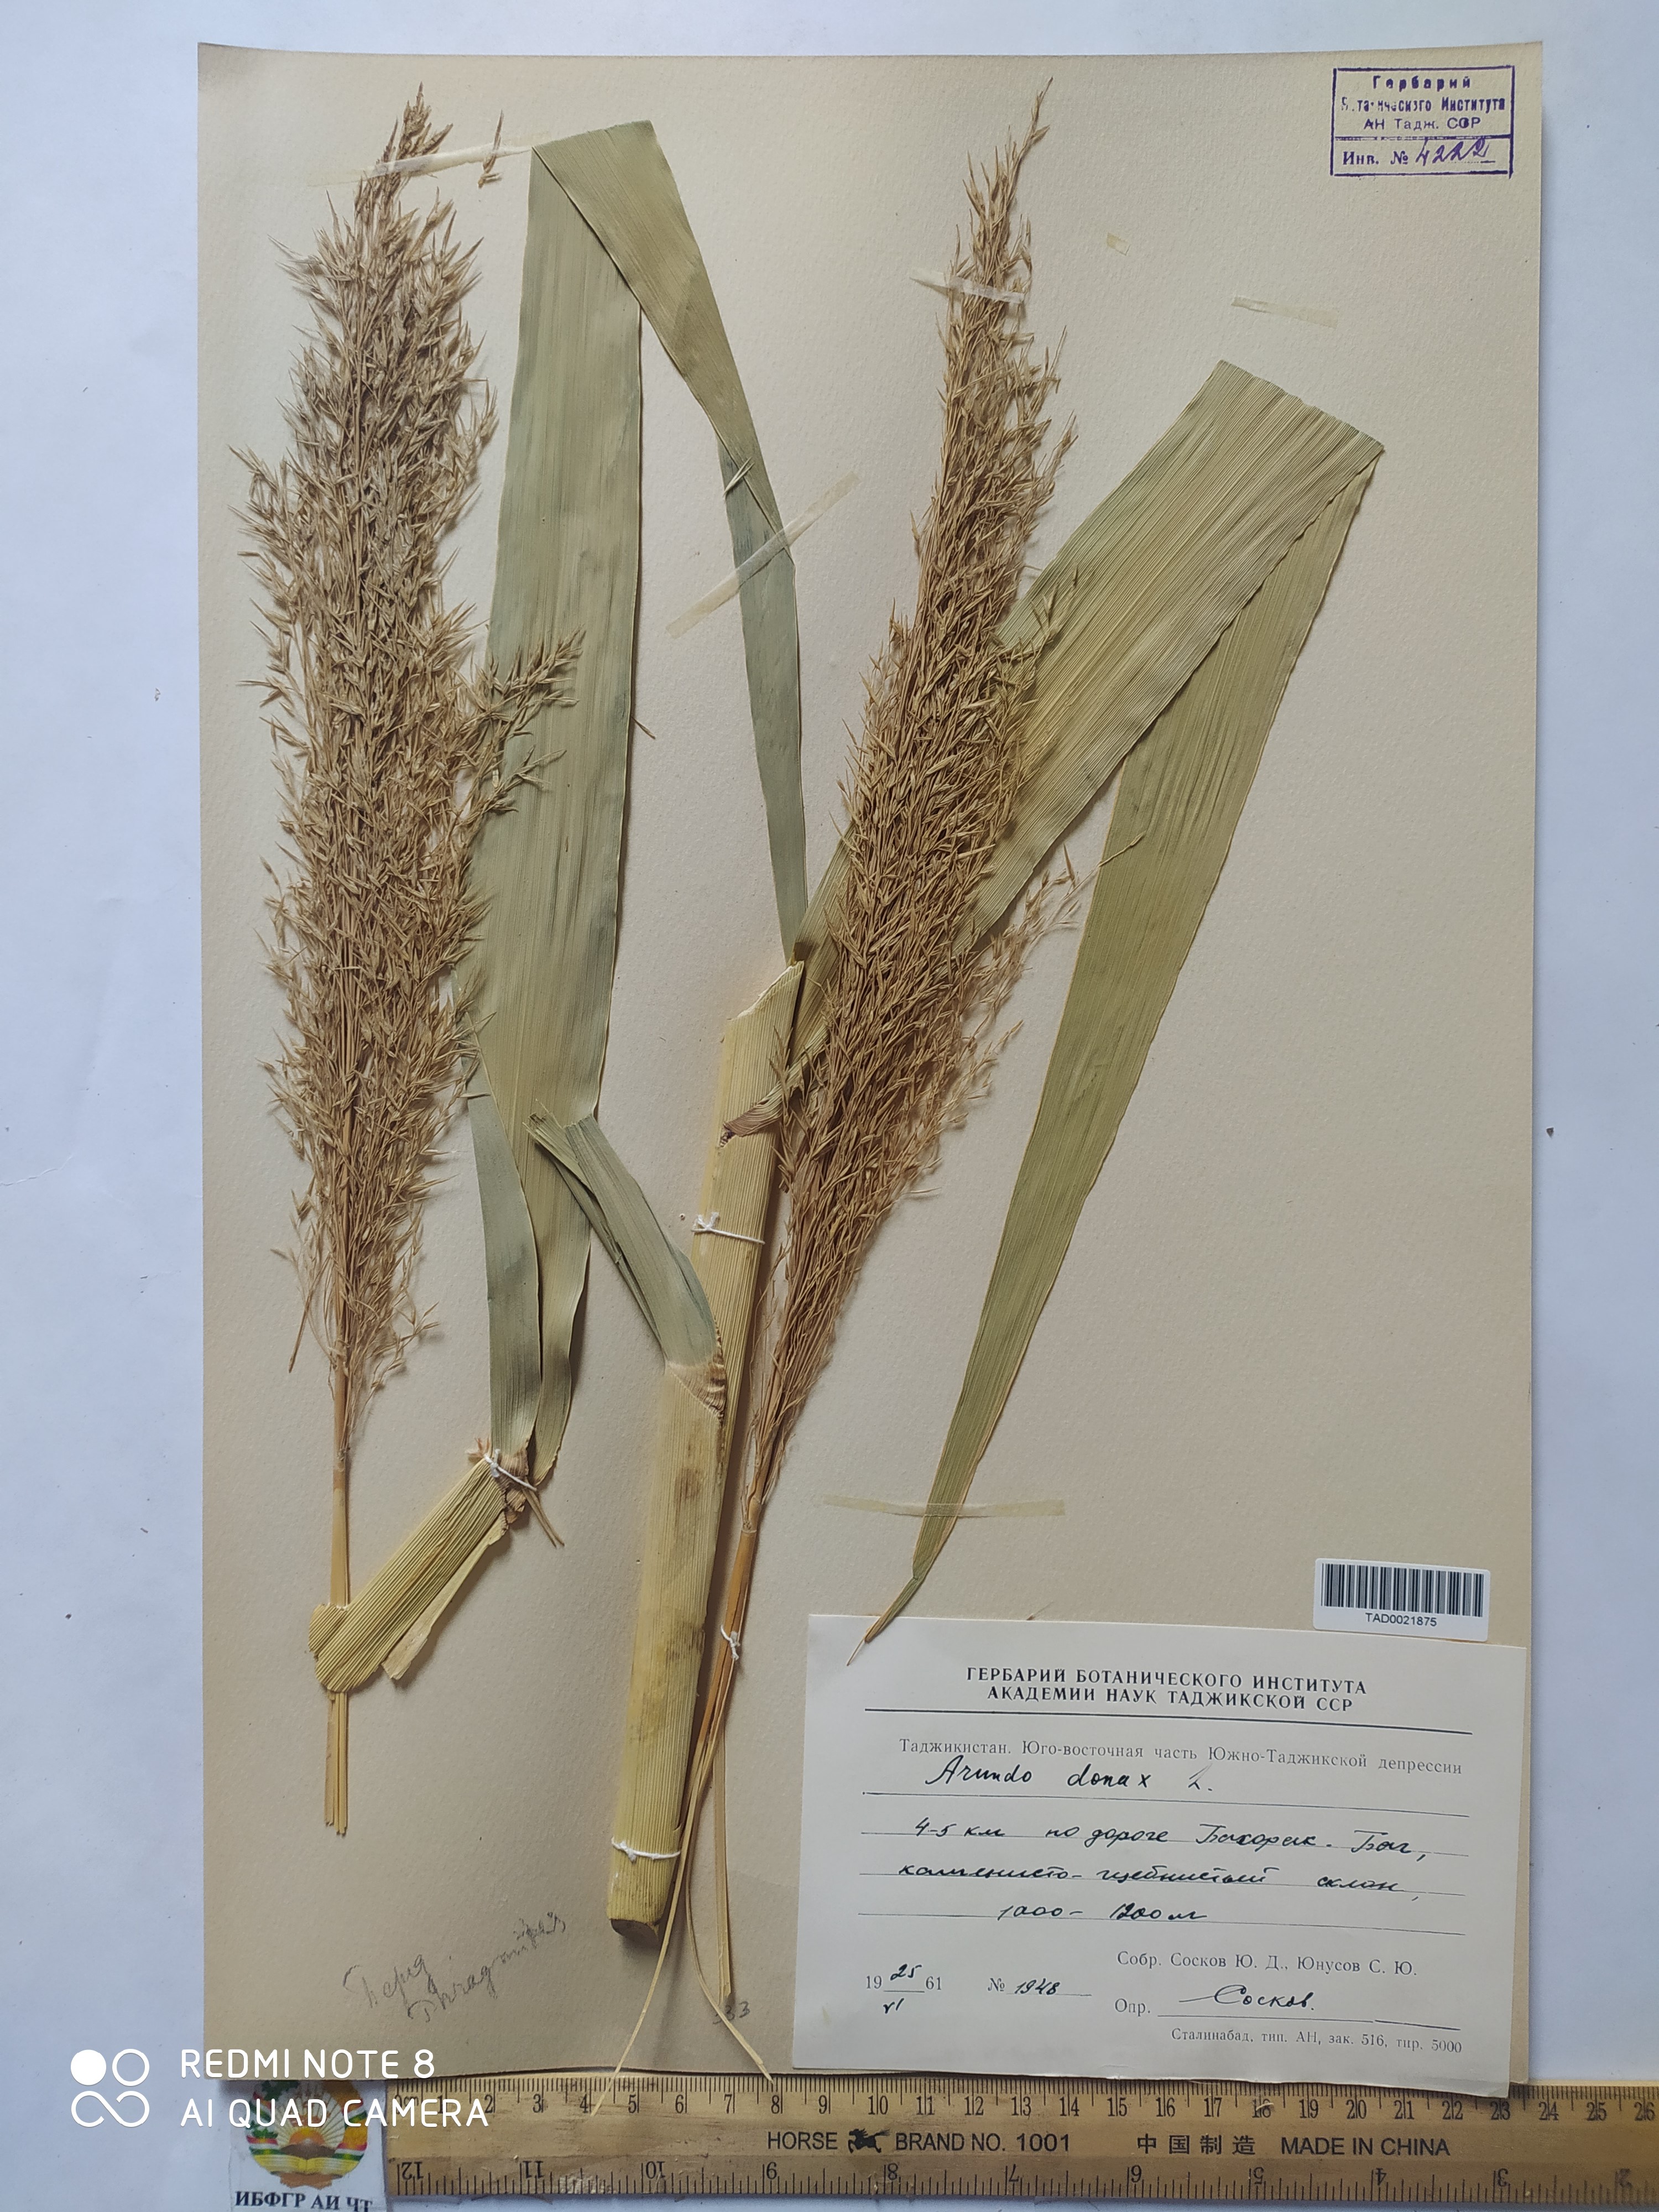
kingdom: Plantae
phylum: Tracheophyta
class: Liliopsida
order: Poales
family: Poaceae
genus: Arundo
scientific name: Arundo donax
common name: Giant reed
